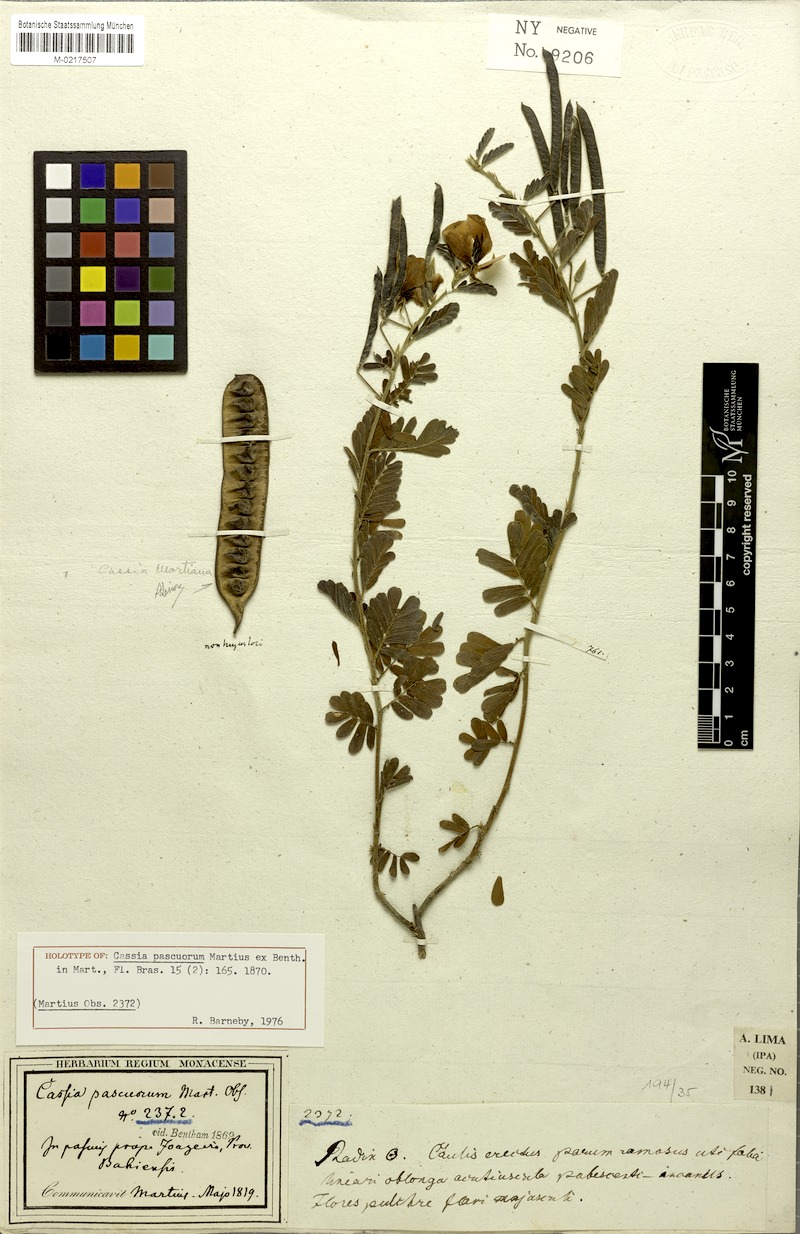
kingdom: Plantae
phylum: Tracheophyta
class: Magnoliopsida
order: Fabales
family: Fabaceae
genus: Chamaecrista
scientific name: Chamaecrista pascuorum
